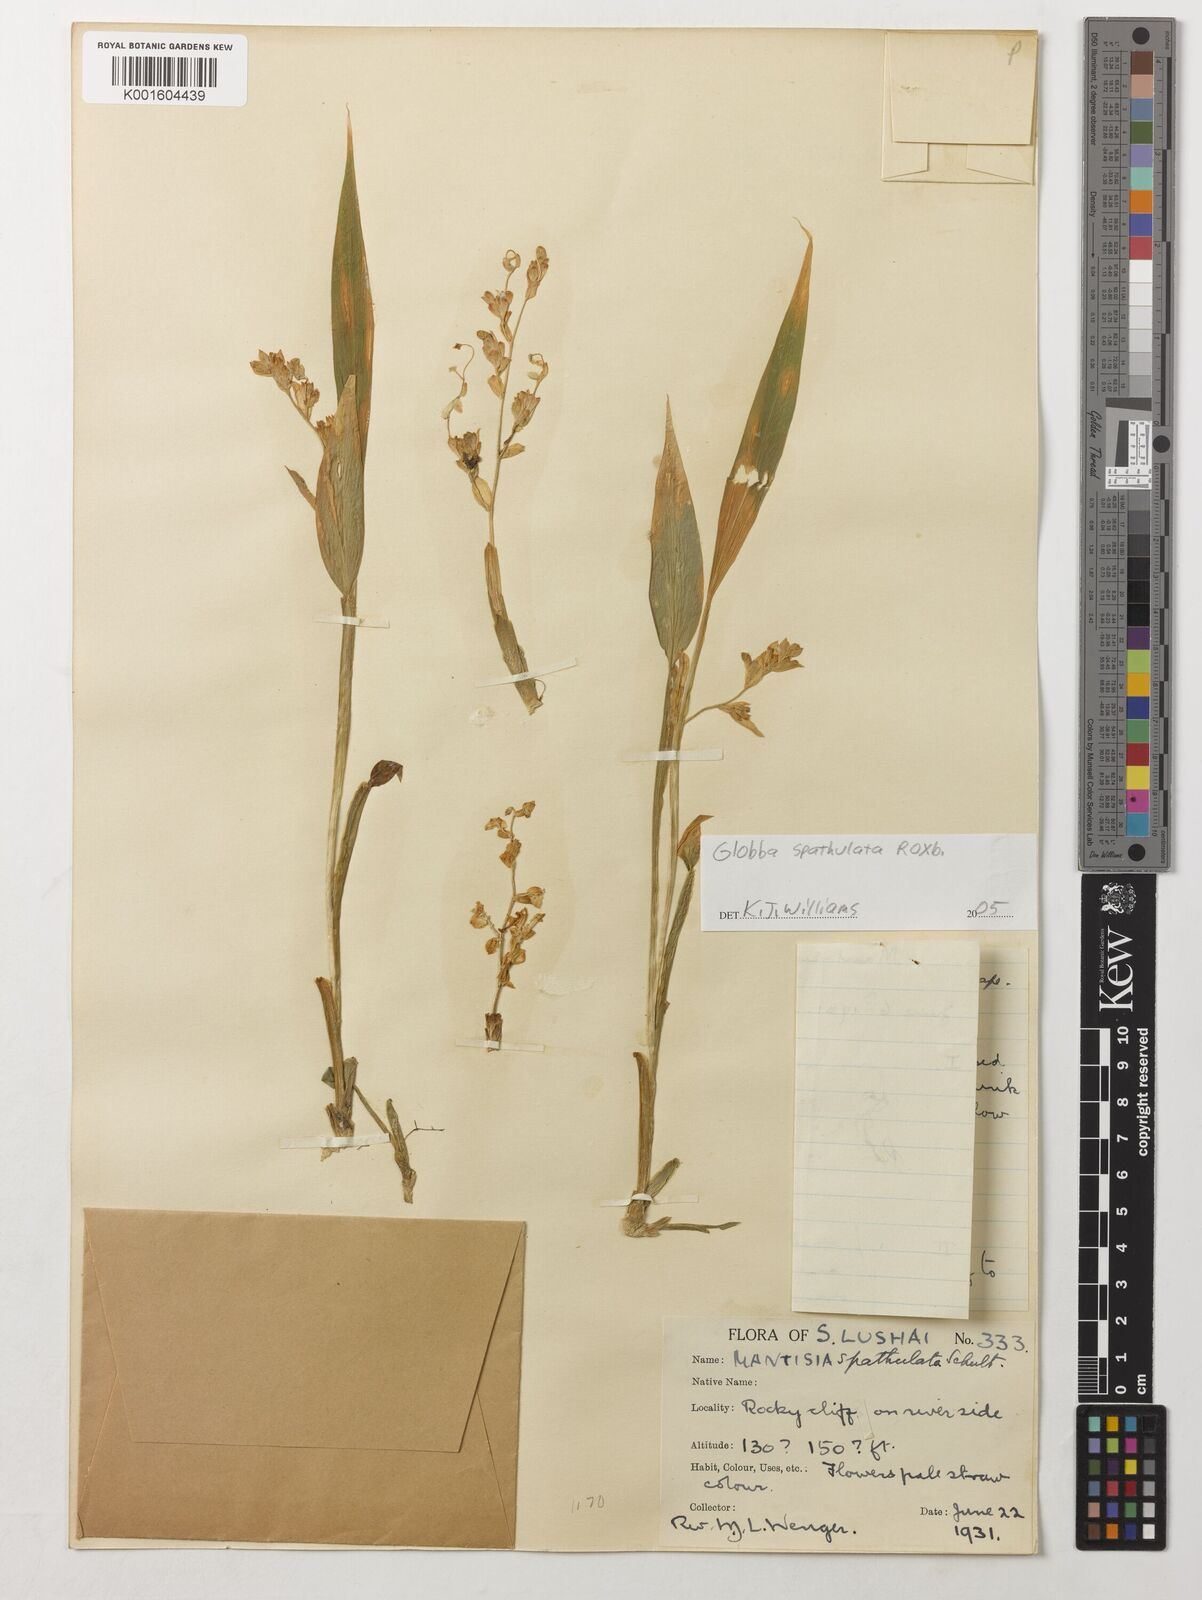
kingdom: Plantae
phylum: Tracheophyta
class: Liliopsida
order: Zingiberales
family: Zingiberaceae
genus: Globba
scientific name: Globba spathulata
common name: Dancing girl flower
